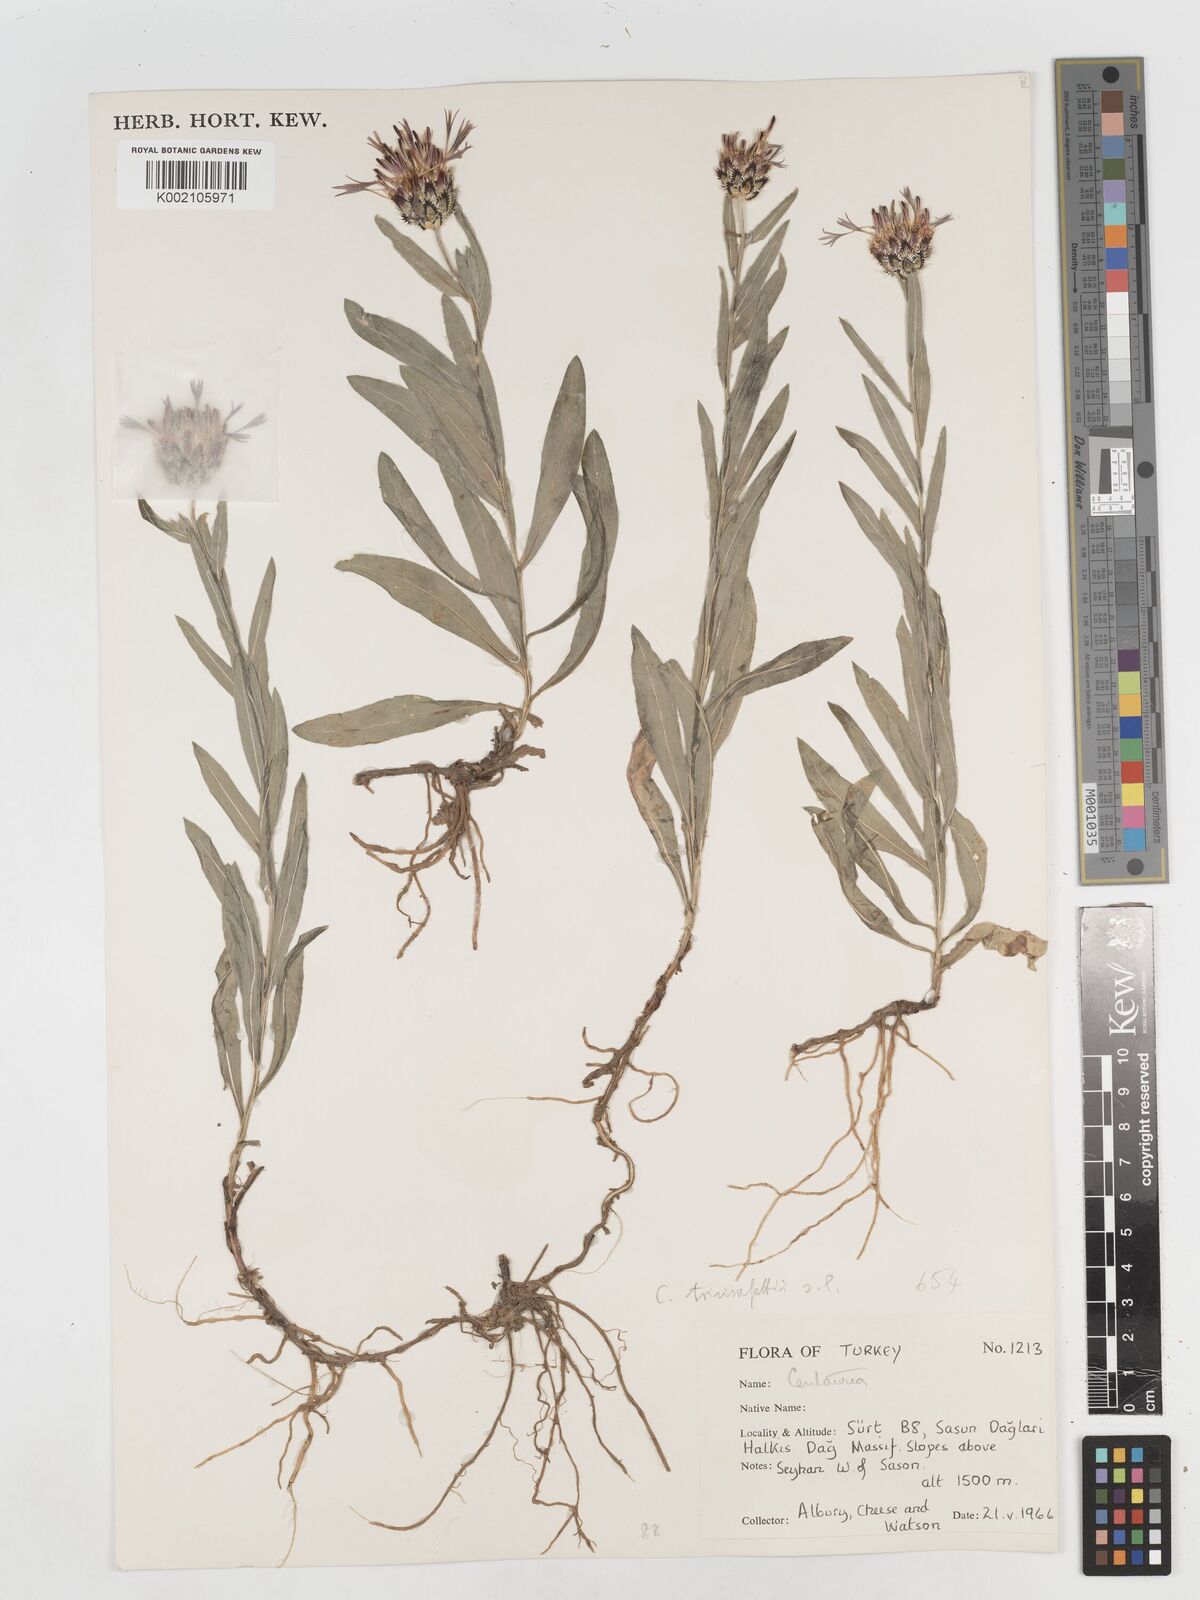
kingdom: Plantae
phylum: Tracheophyta
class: Magnoliopsida
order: Asterales
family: Asteraceae
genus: Centaurea
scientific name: Centaurea
